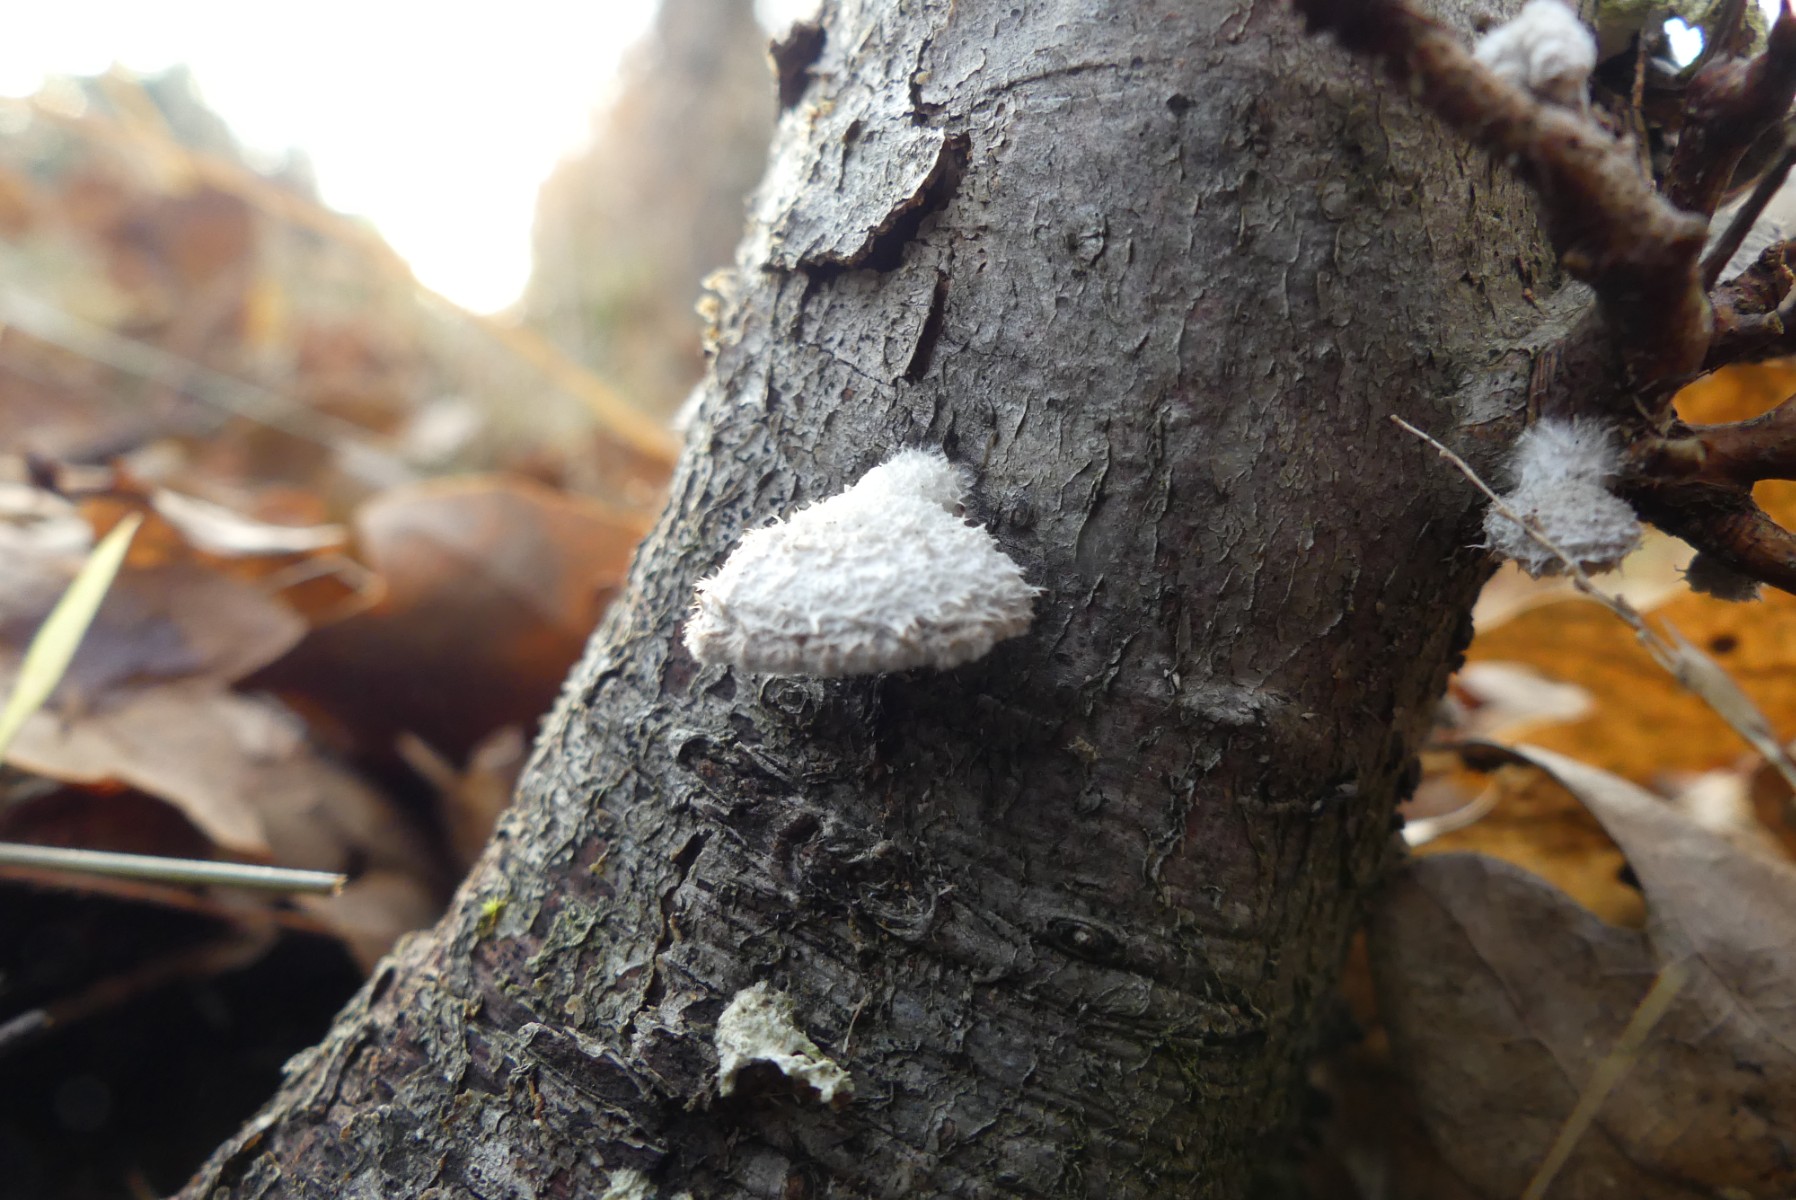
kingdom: Fungi
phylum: Basidiomycota
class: Agaricomycetes
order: Agaricales
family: Schizophyllaceae
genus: Schizophyllum
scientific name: Schizophyllum commune
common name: kløvblad
